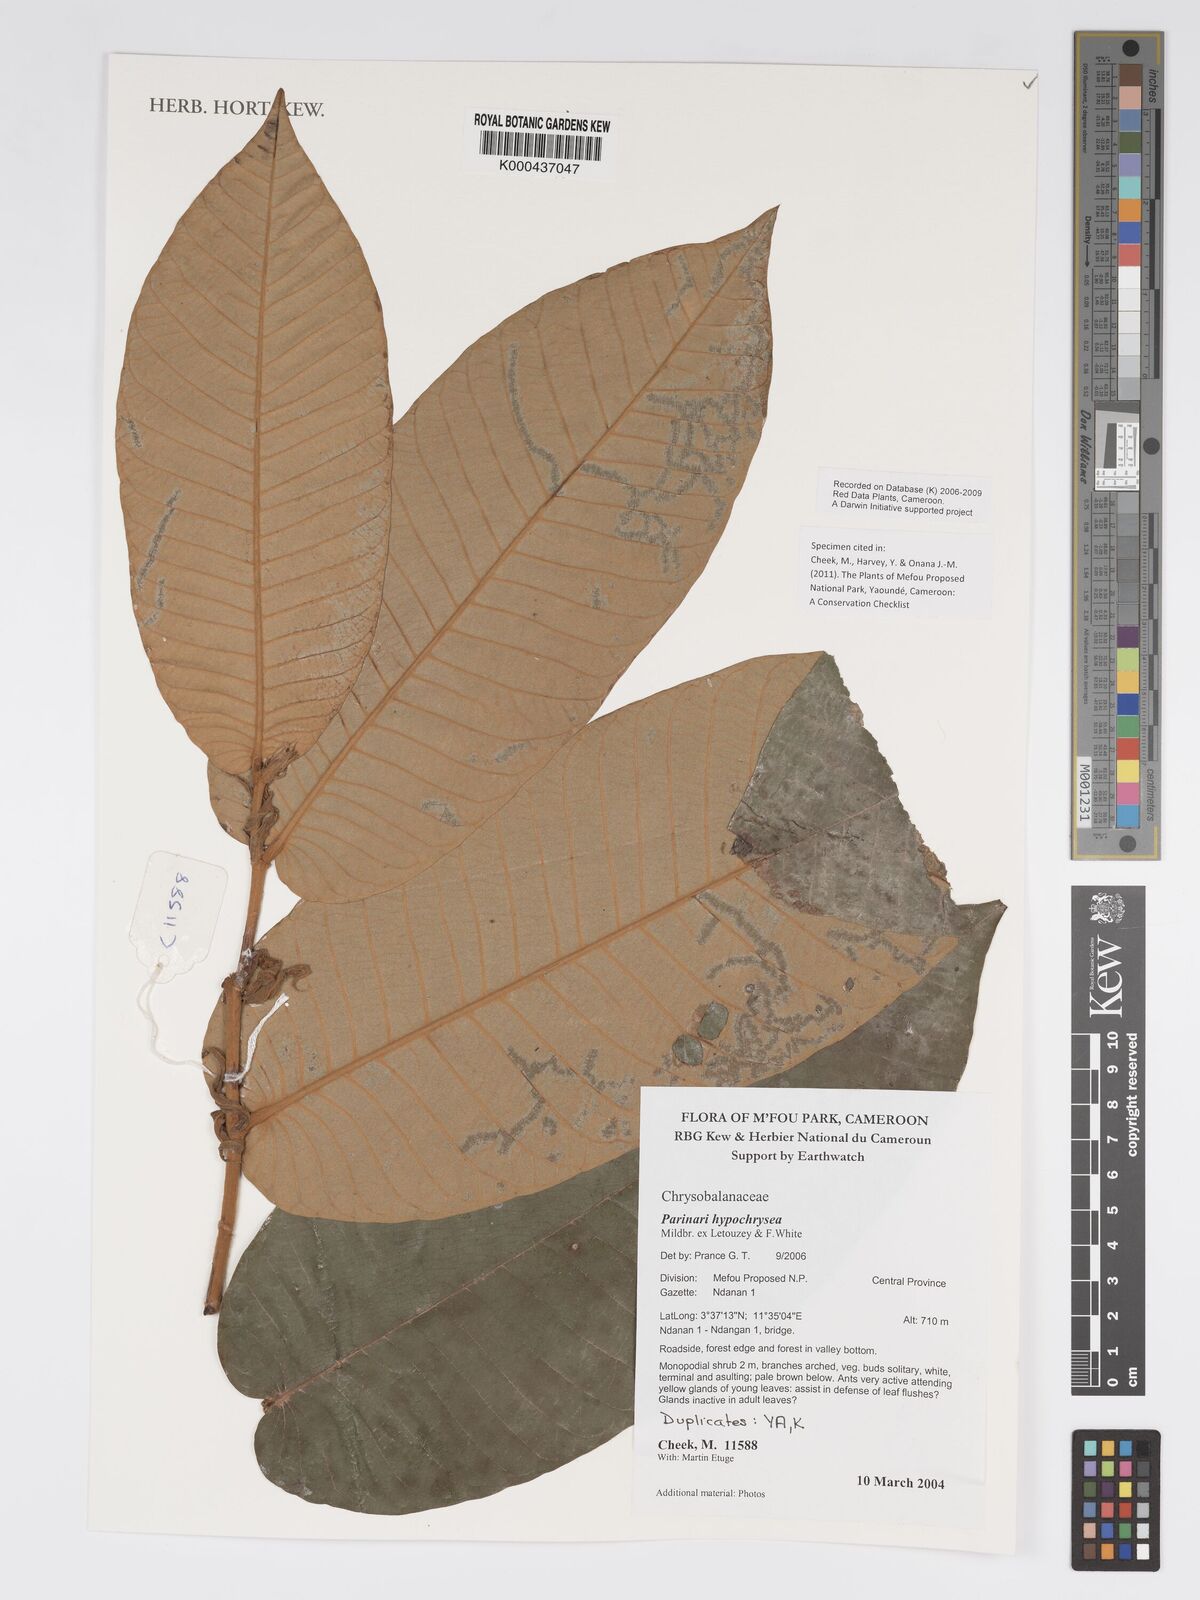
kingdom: Plantae
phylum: Tracheophyta
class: Magnoliopsida
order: Malpighiales
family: Chrysobalanaceae
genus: Parinari
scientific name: Parinari hypochrysea
